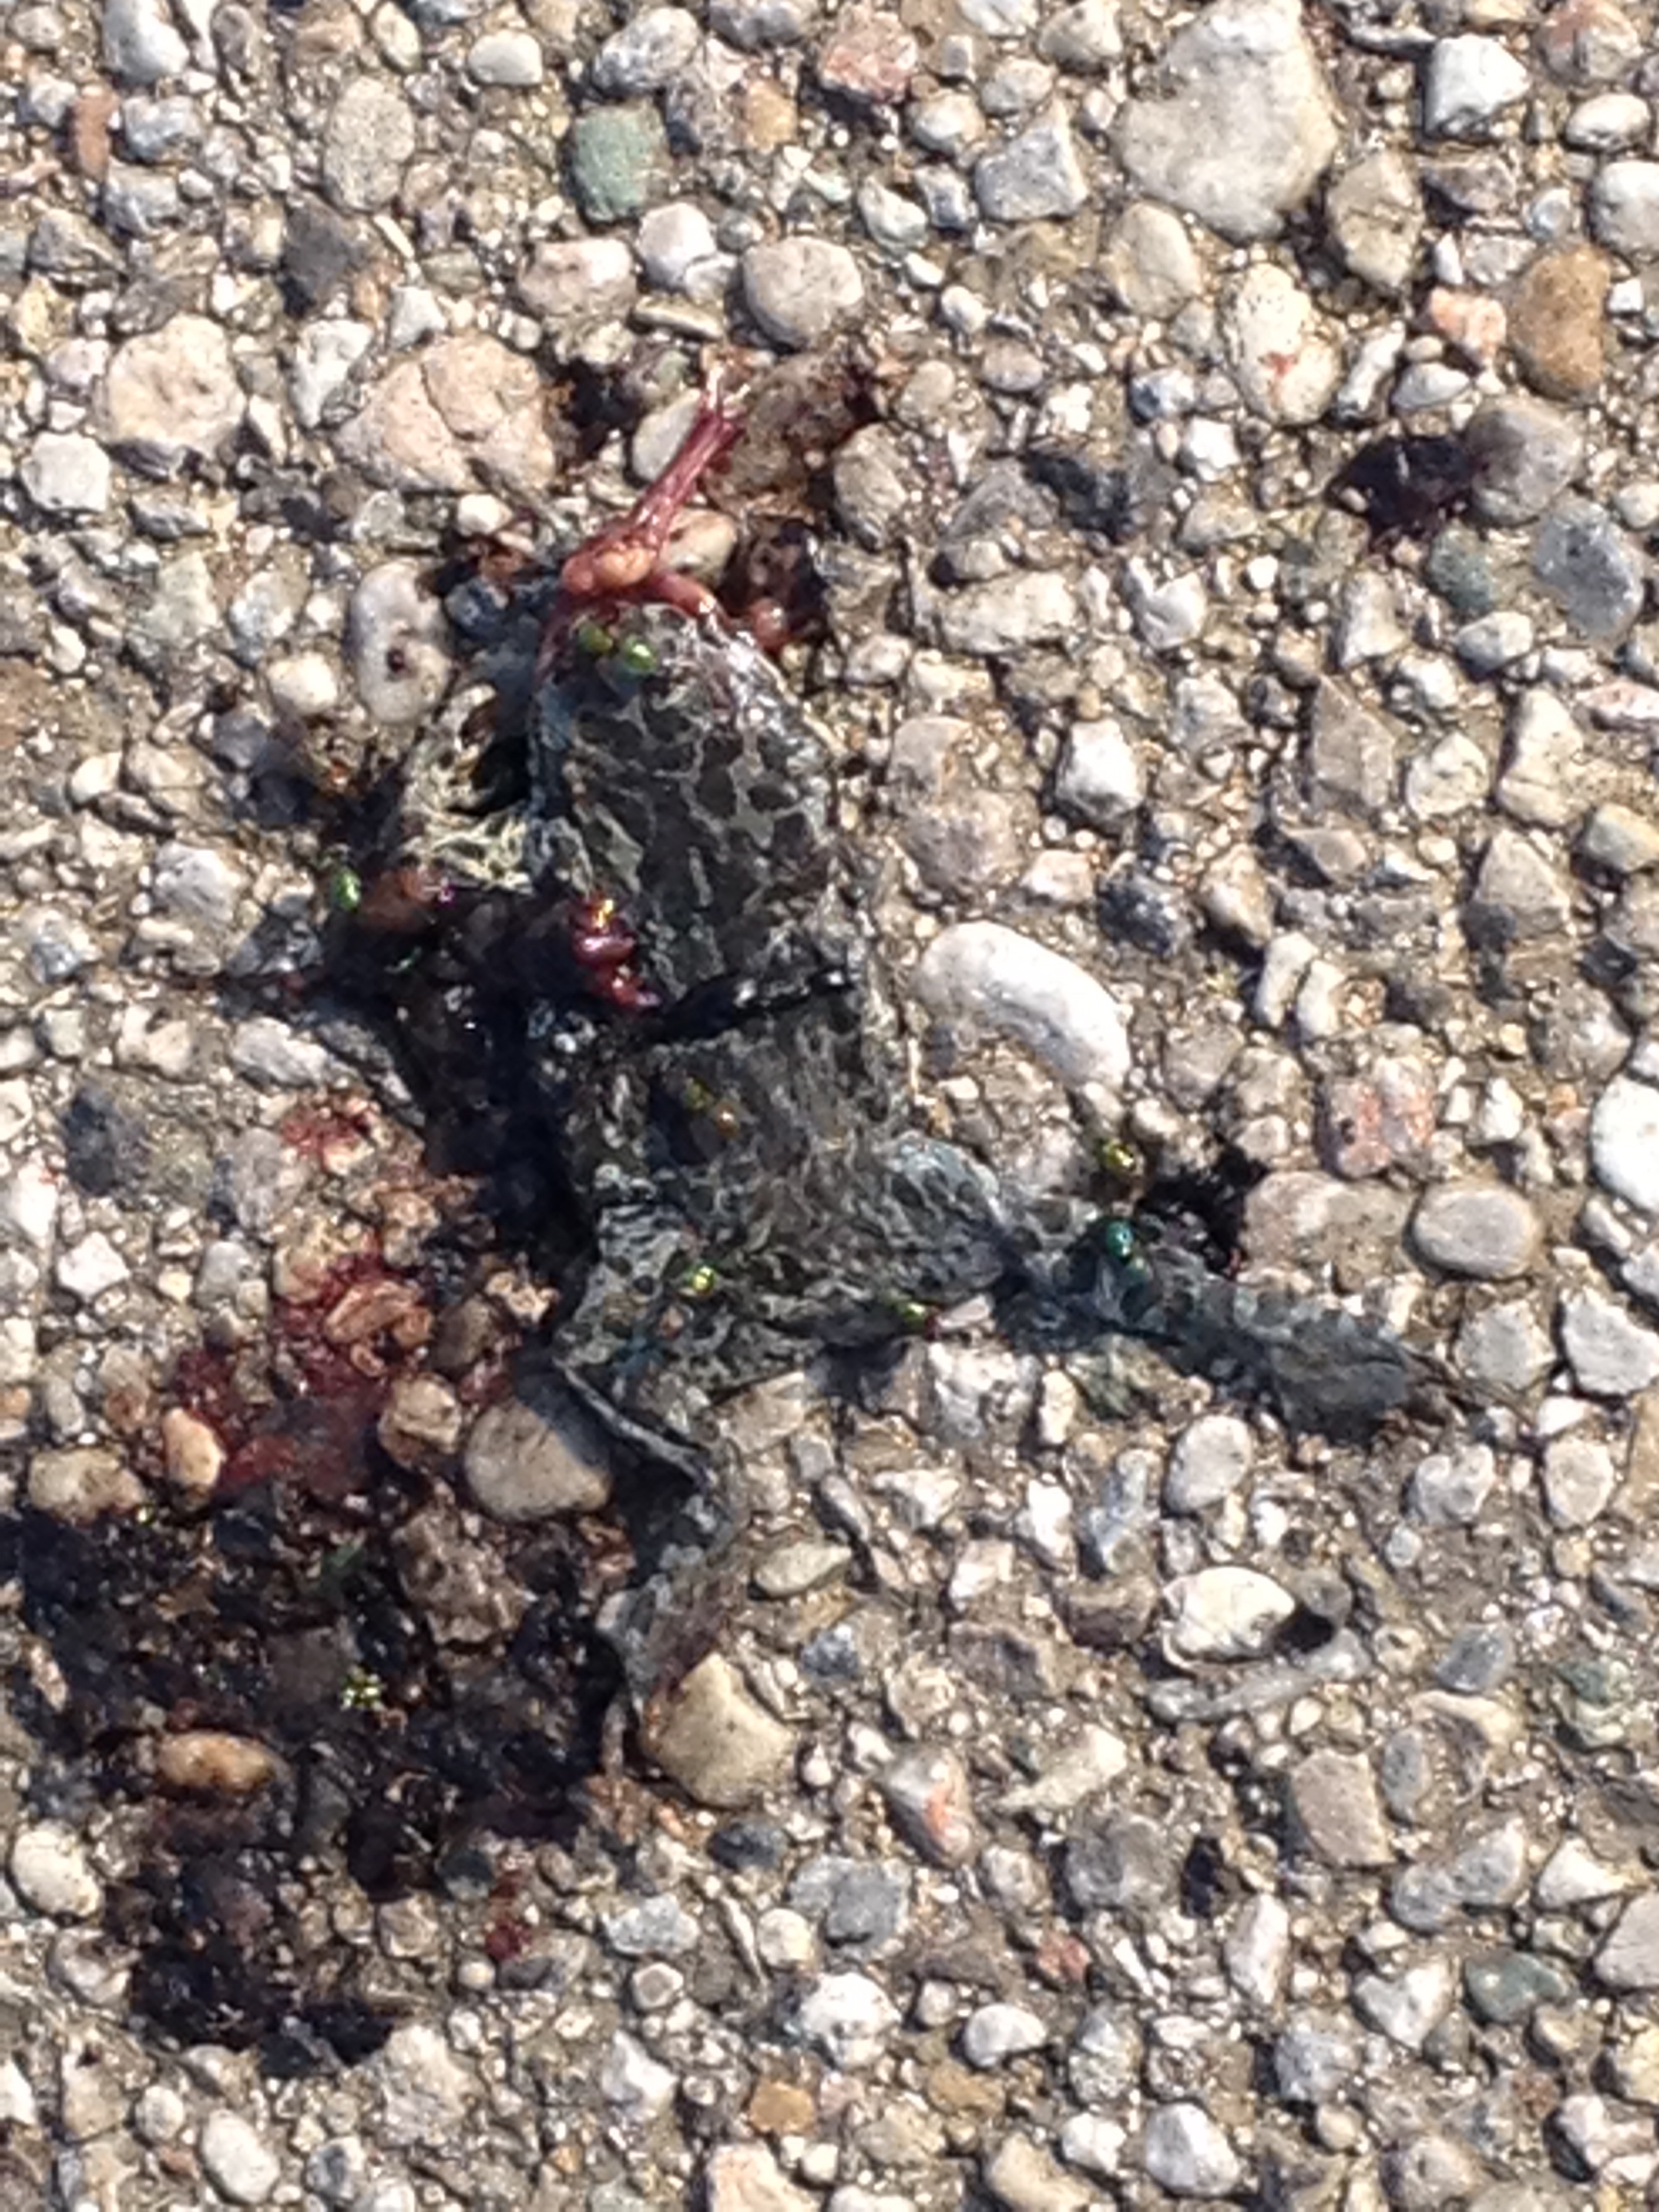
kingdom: Animalia
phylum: Chordata
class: Amphibia
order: Anura
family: Bufonidae
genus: Bufotes
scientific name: Bufotes viridis
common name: European green toad
